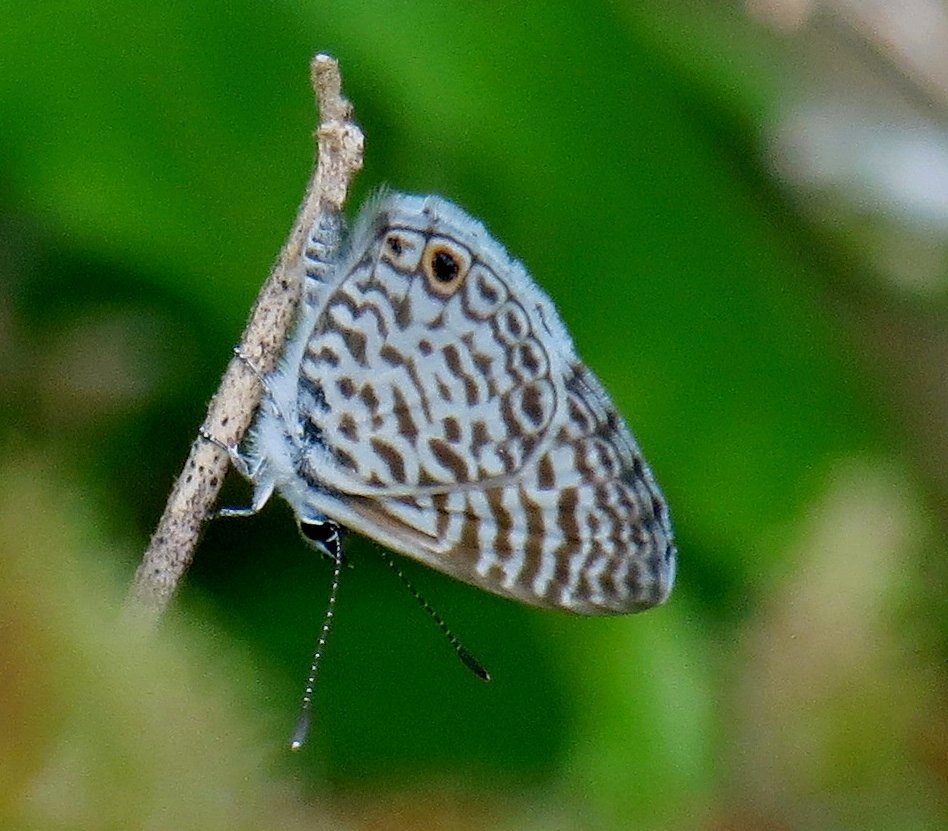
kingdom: Animalia
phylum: Arthropoda
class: Insecta
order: Lepidoptera
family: Lycaenidae
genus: Leptotes
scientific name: Leptotes cassius
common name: Cassius Blue
